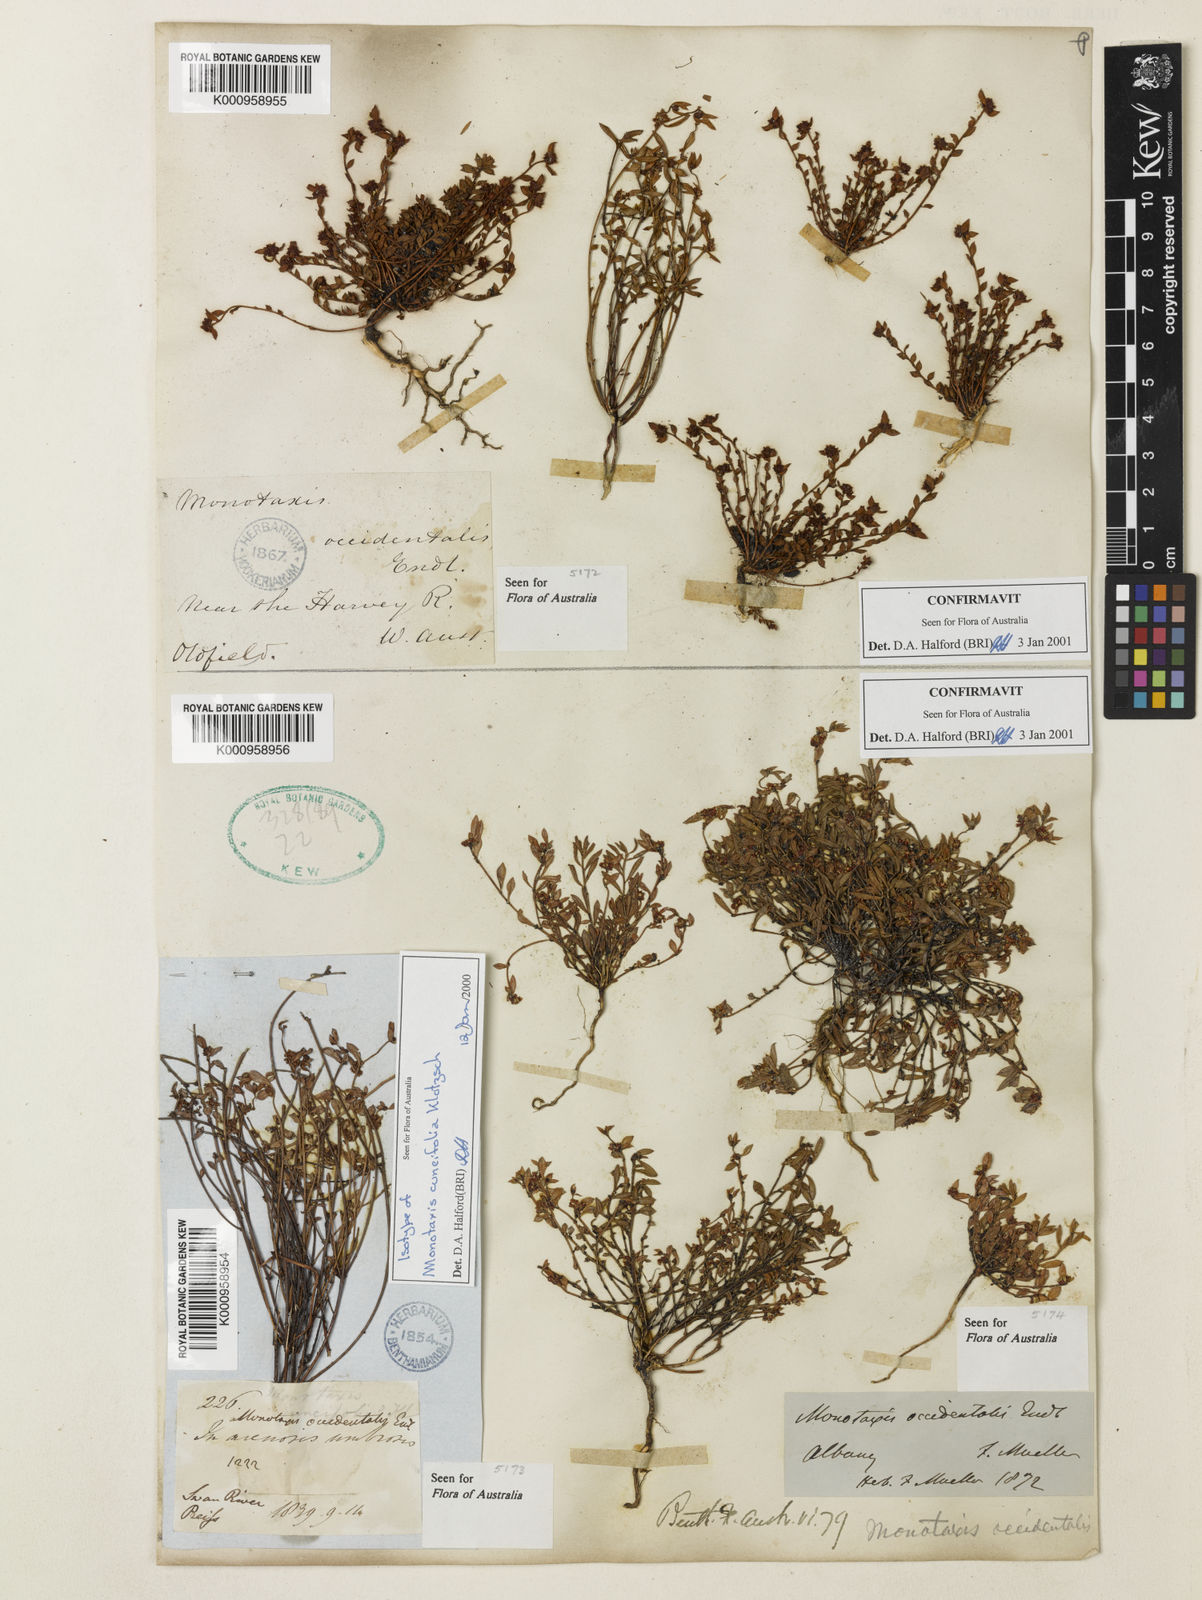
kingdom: Plantae
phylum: Tracheophyta
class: Magnoliopsida
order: Malpighiales
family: Euphorbiaceae
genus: Monotaxis
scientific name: Monotaxis occidentalis
